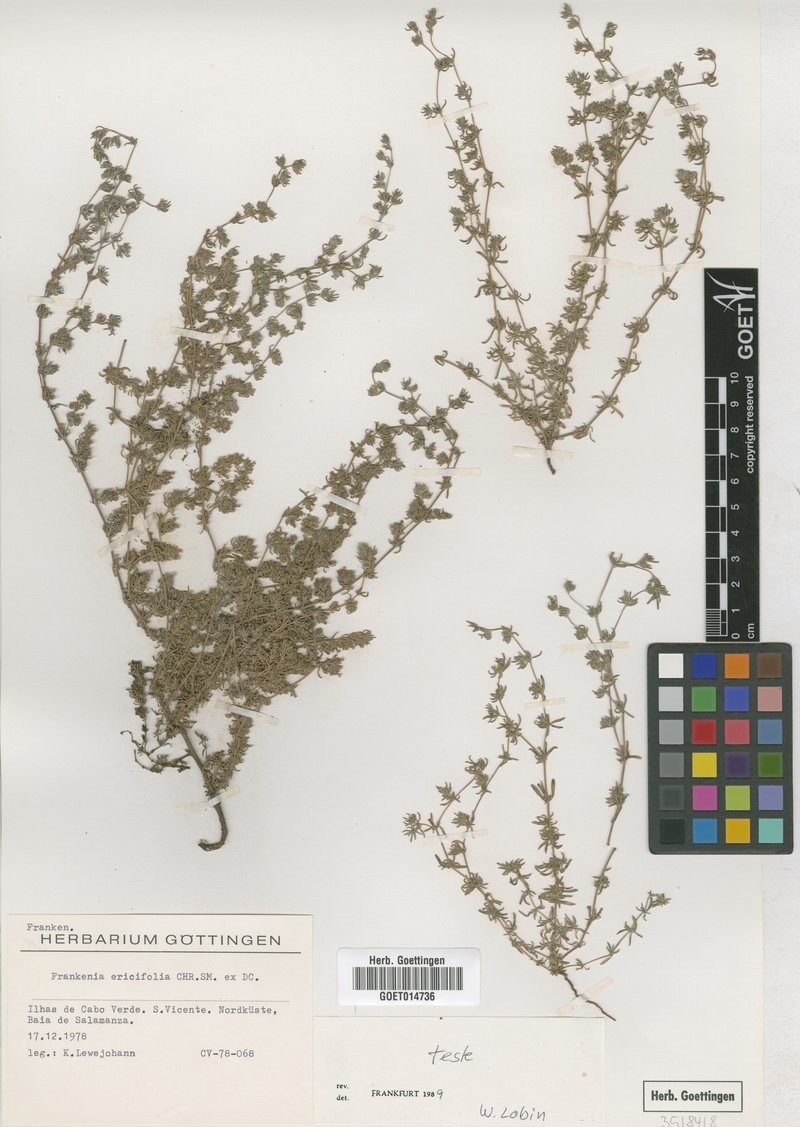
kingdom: Plantae
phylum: Tracheophyta
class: Magnoliopsida
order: Caryophyllales
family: Frankeniaceae
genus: Frankenia
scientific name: Frankenia ericifolia
